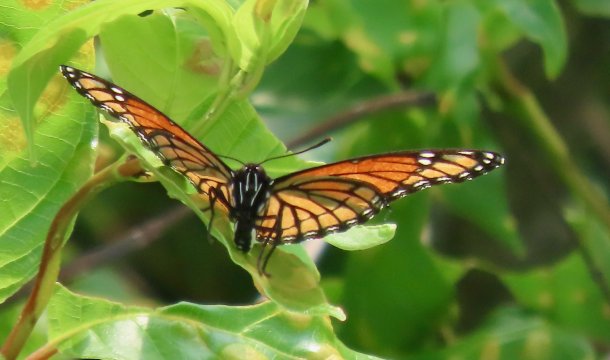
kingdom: Animalia
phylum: Arthropoda
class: Insecta
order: Lepidoptera
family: Nymphalidae
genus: Limenitis
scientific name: Limenitis archippus
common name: Viceroy
